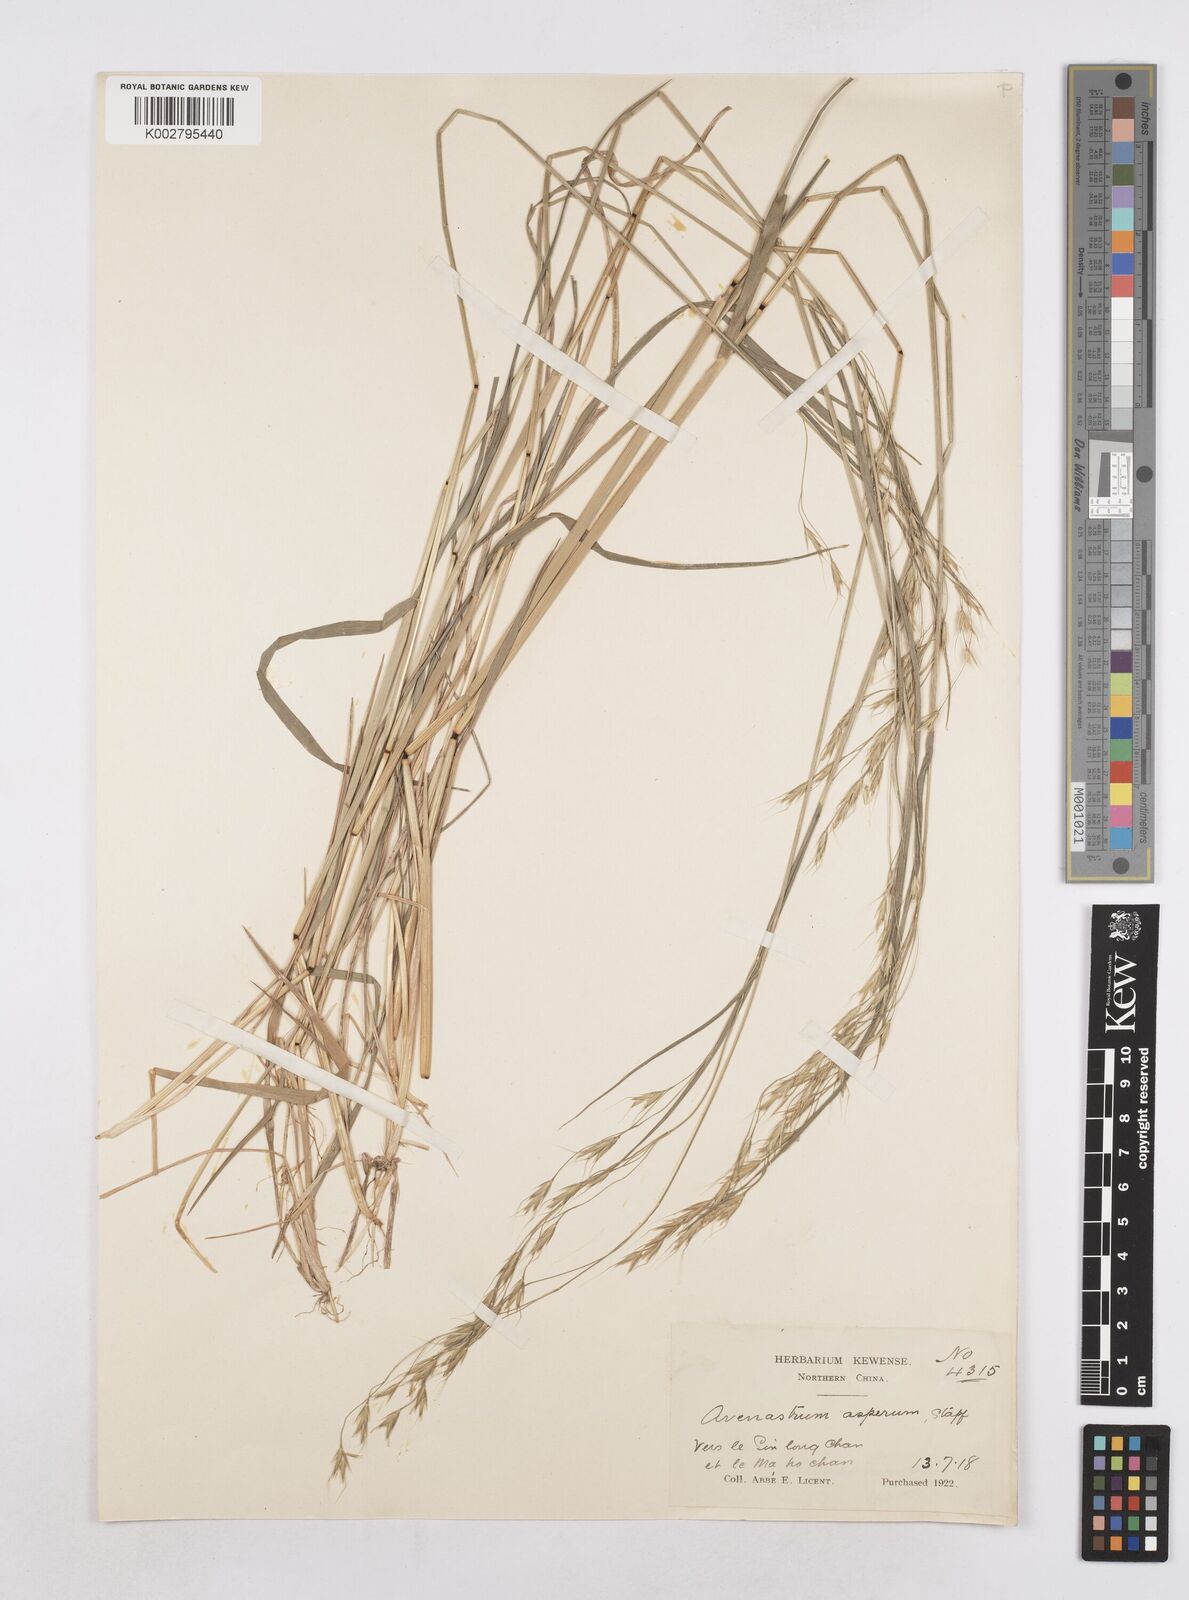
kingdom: Plantae
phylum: Tracheophyta
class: Liliopsida
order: Poales
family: Poaceae
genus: Trisetopsis
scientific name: Trisetopsis junghuhnii
